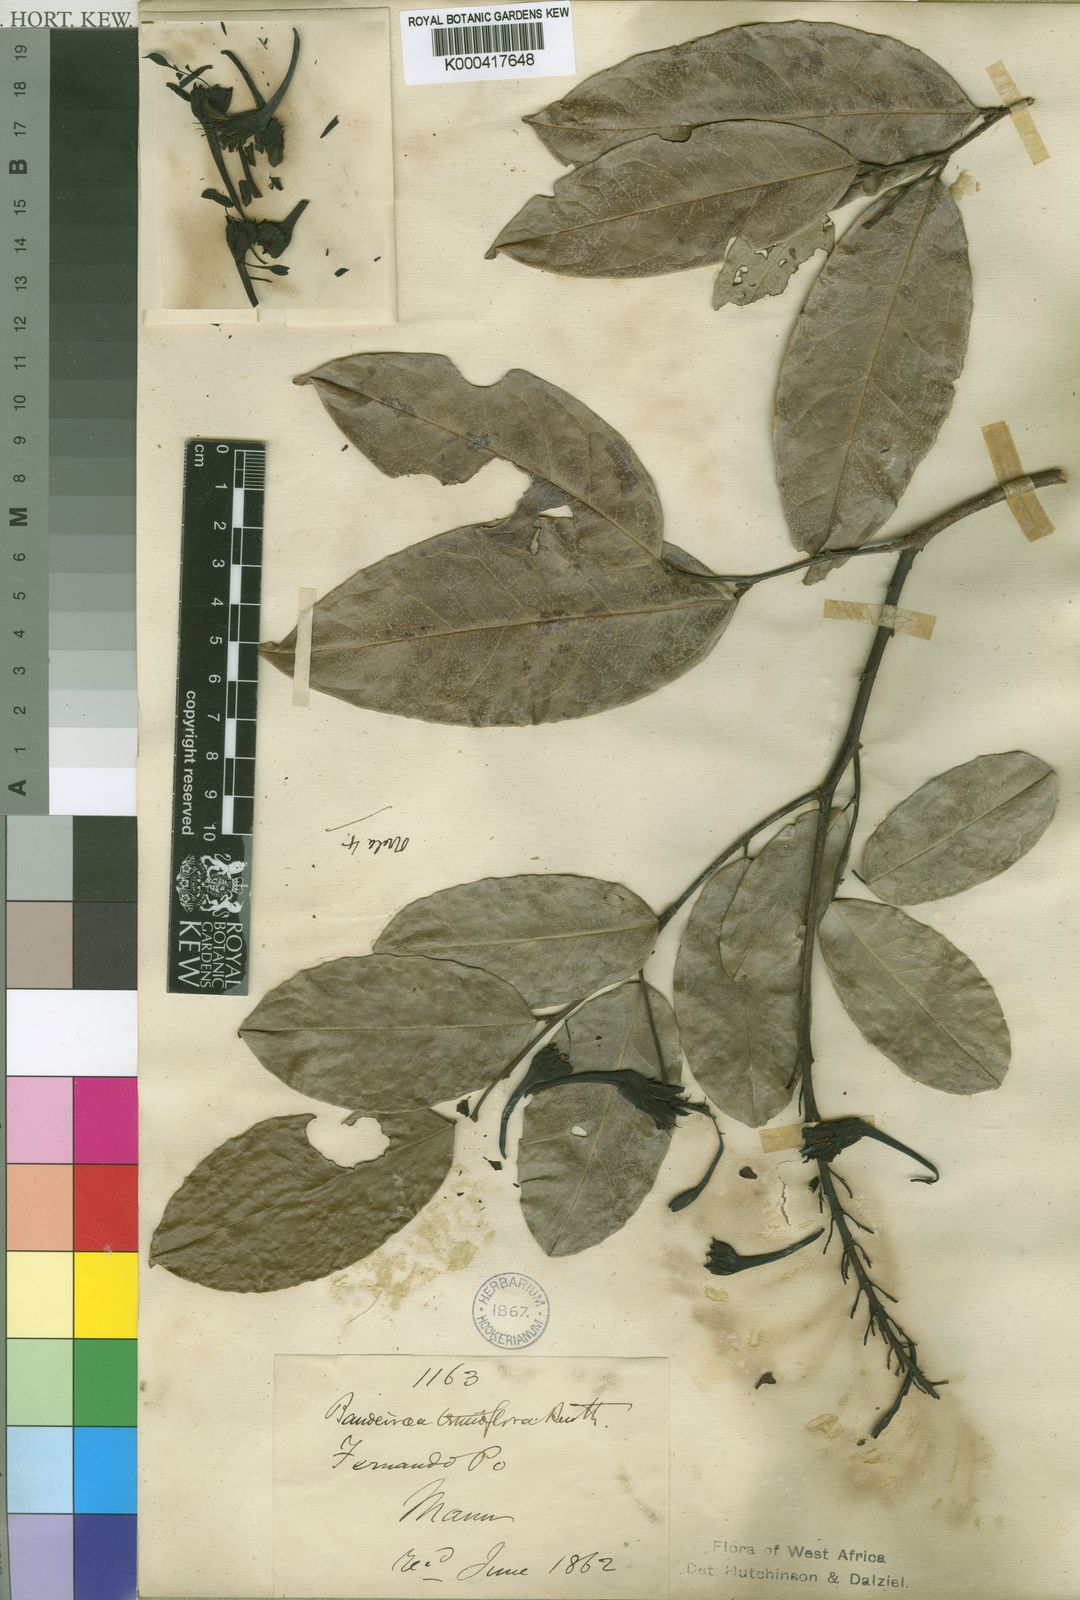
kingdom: Plantae
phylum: Tracheophyta
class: Magnoliopsida
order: Fabales
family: Fabaceae
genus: Griffonia
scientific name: Griffonia physocarpa
